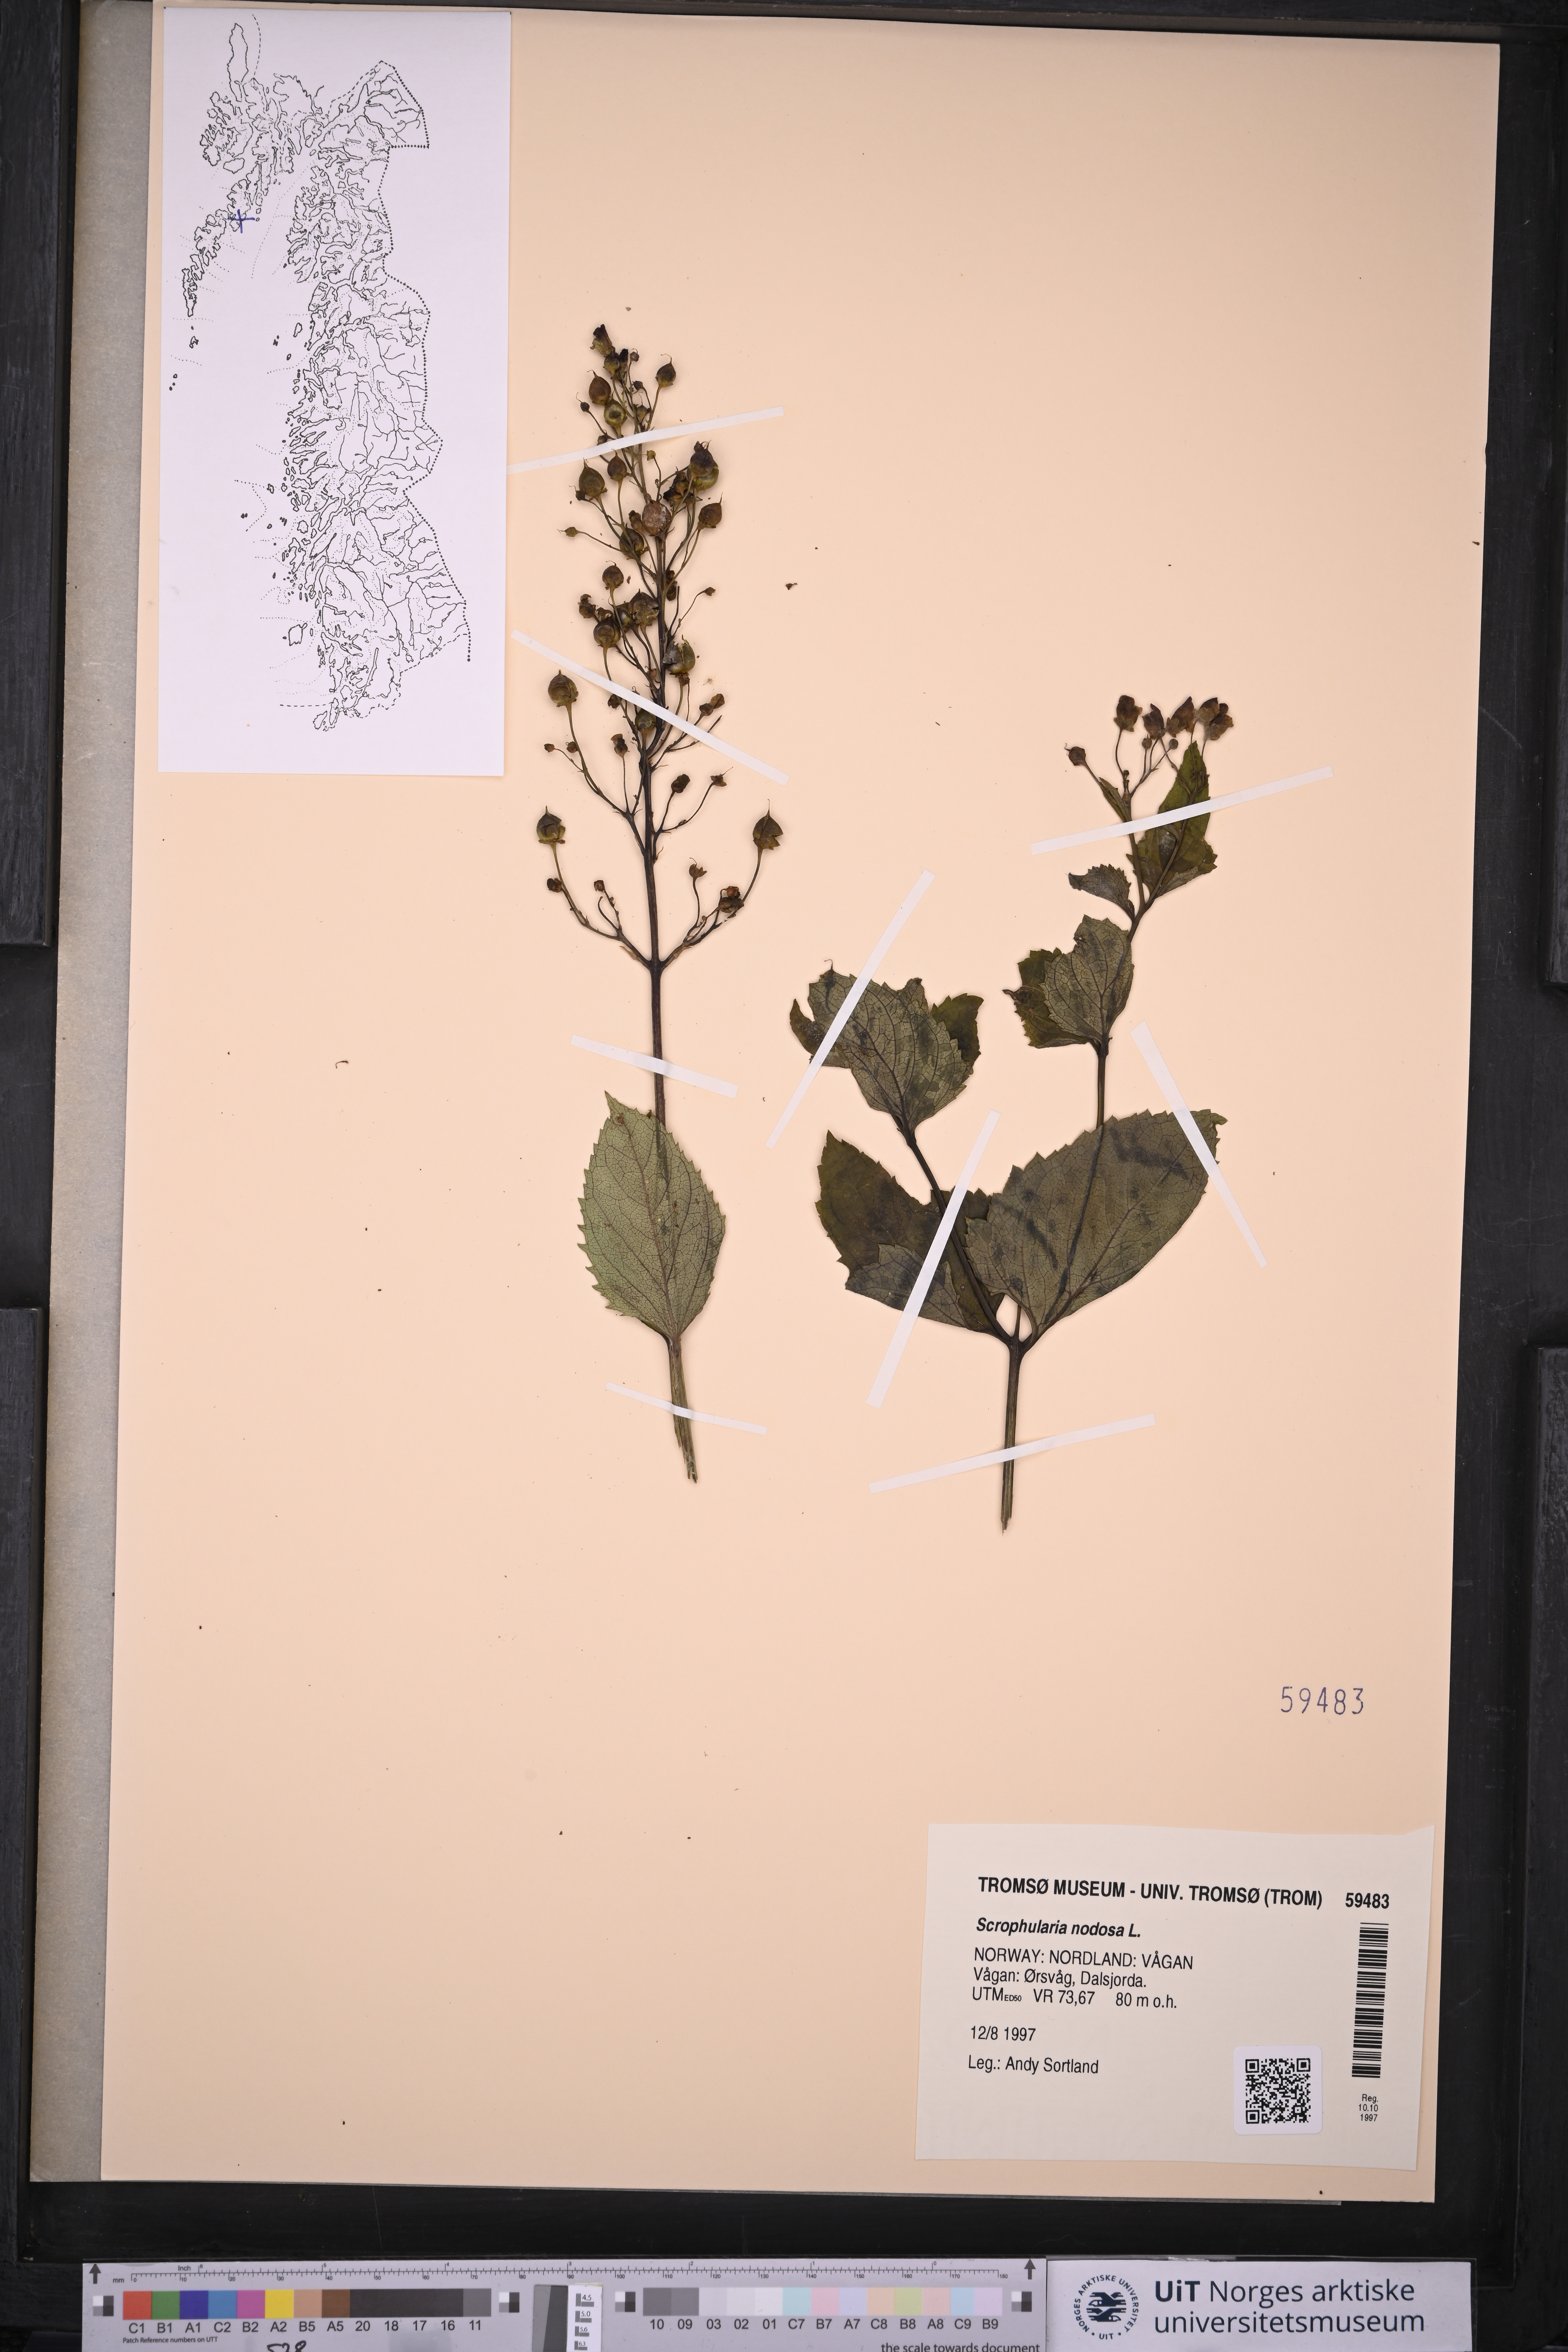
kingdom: Plantae
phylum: Tracheophyta
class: Magnoliopsida
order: Lamiales
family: Scrophulariaceae
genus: Scrophularia
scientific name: Scrophularia nodosa
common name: Common figwort
